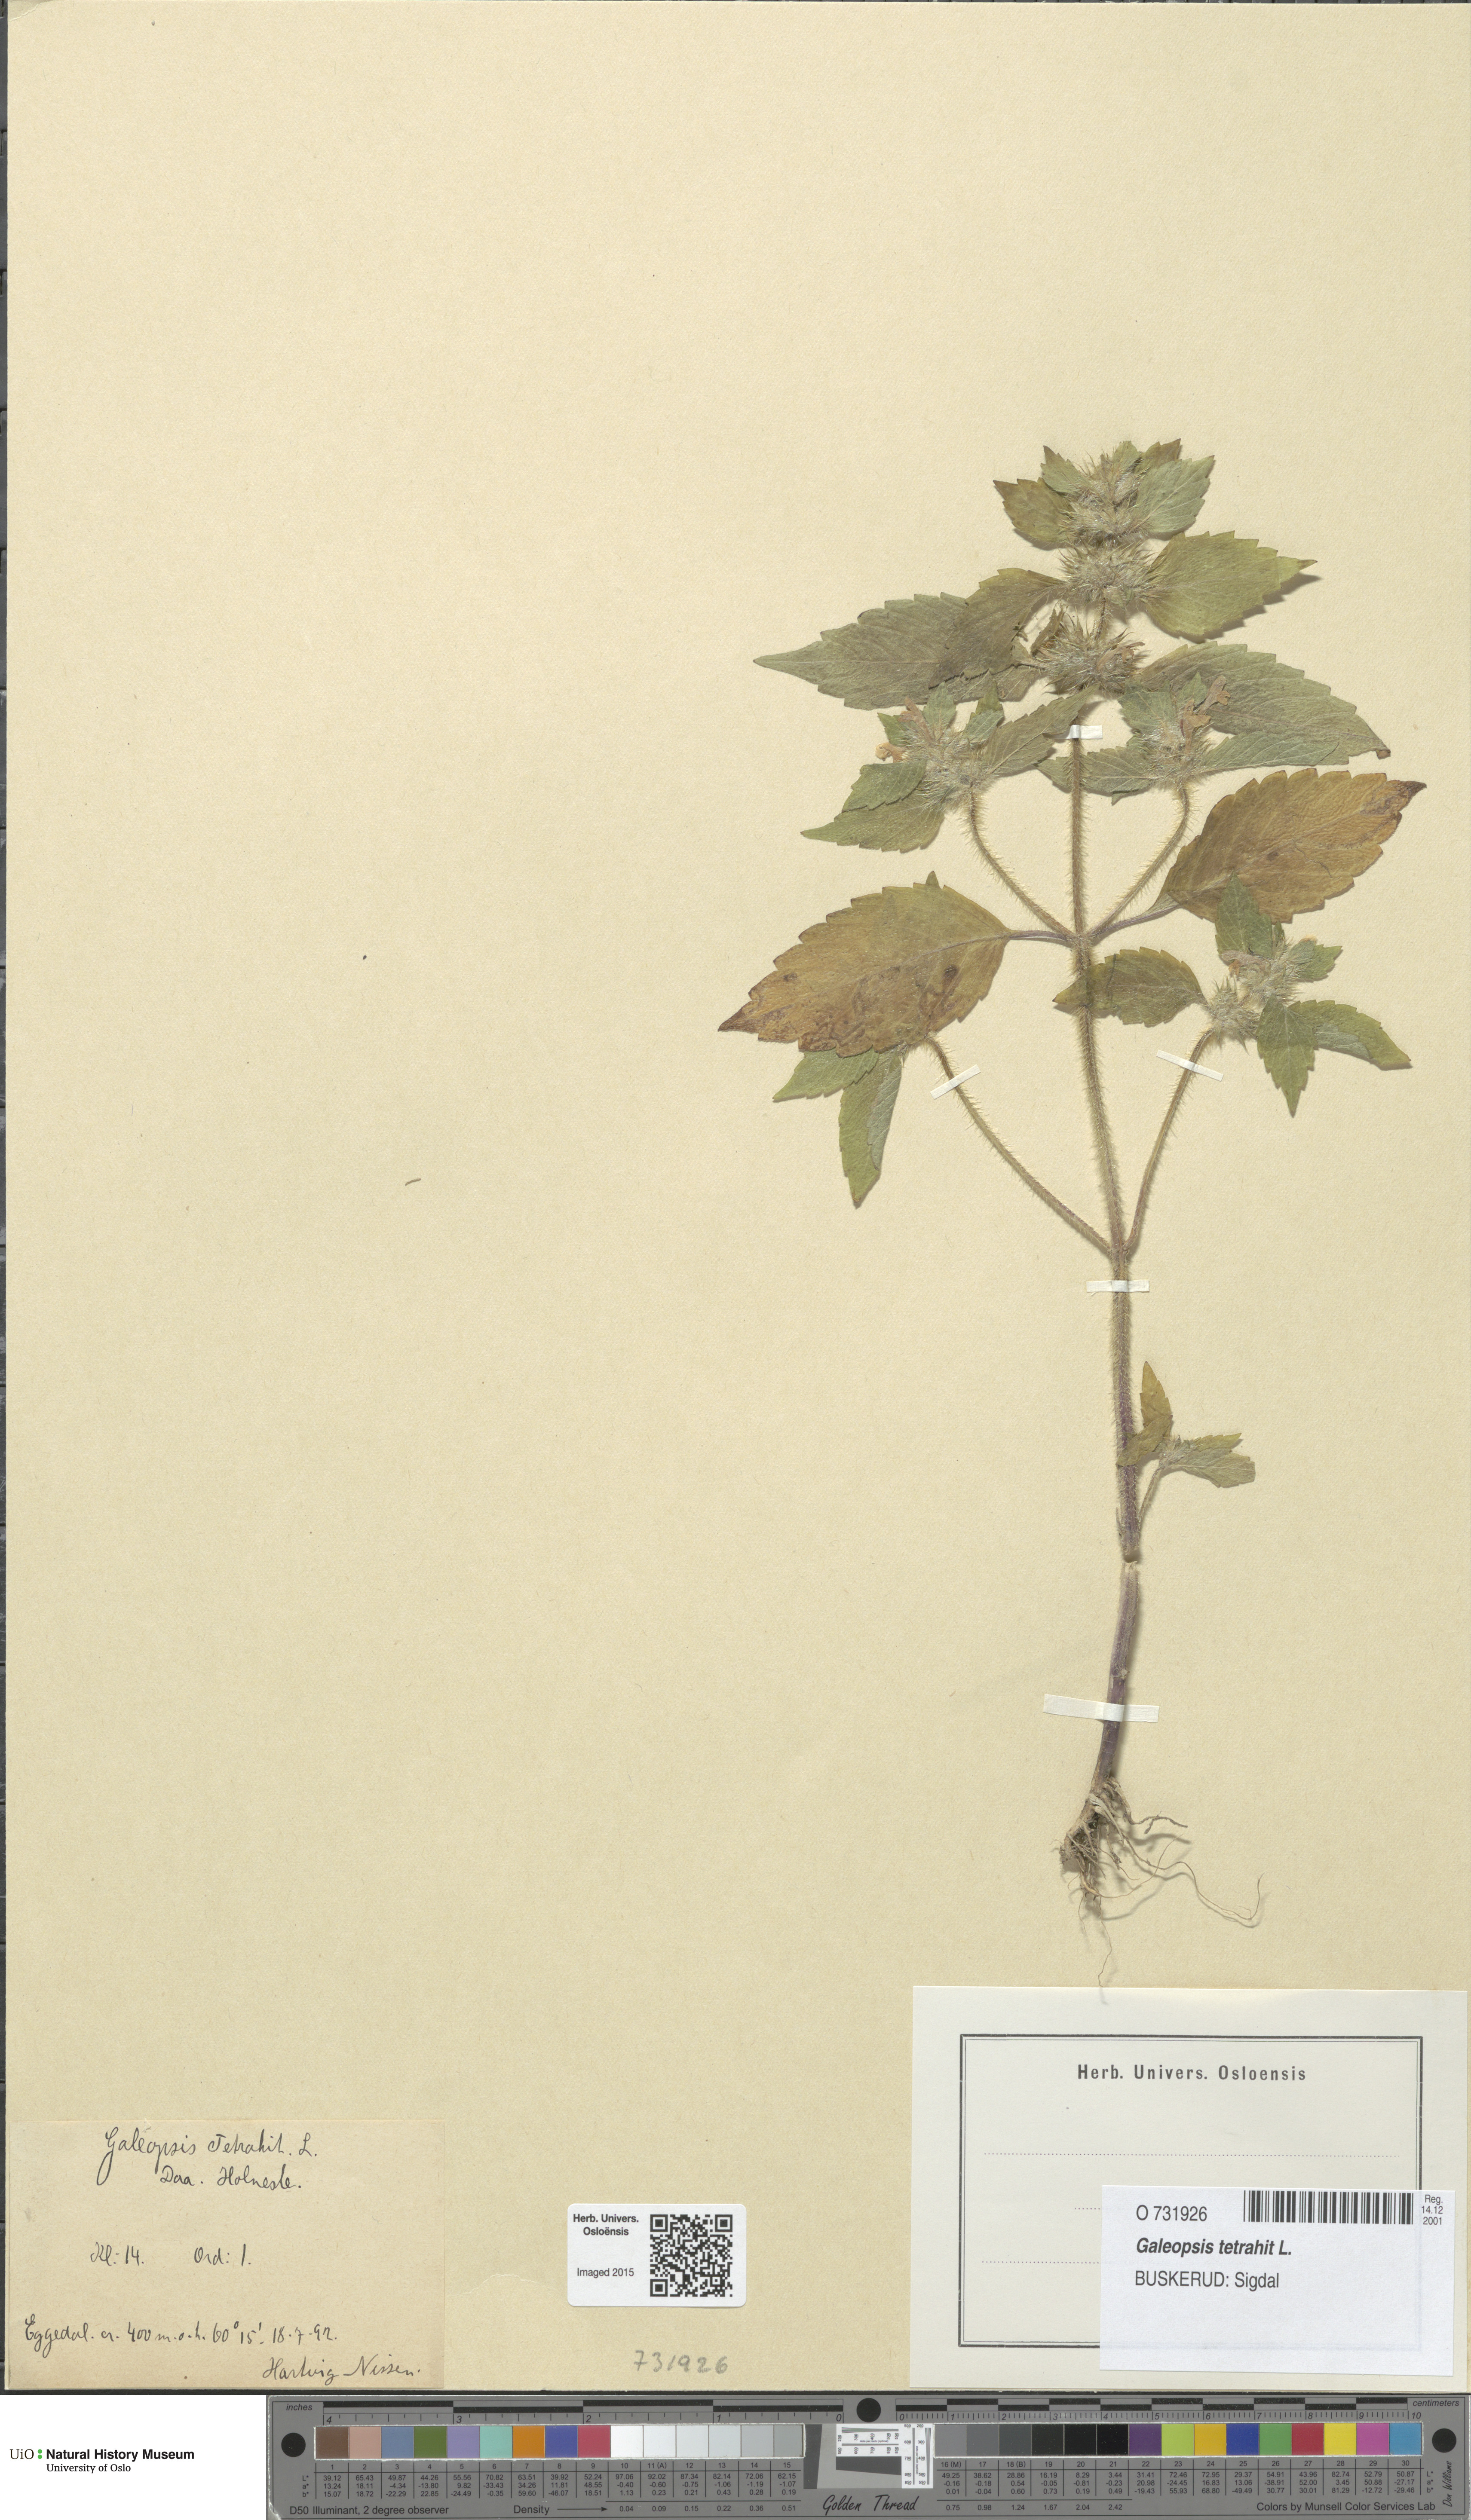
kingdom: Plantae
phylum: Tracheophyta
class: Magnoliopsida
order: Lamiales
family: Lamiaceae
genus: Galeopsis
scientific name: Galeopsis tetrahit
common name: Common hemp-nettle
